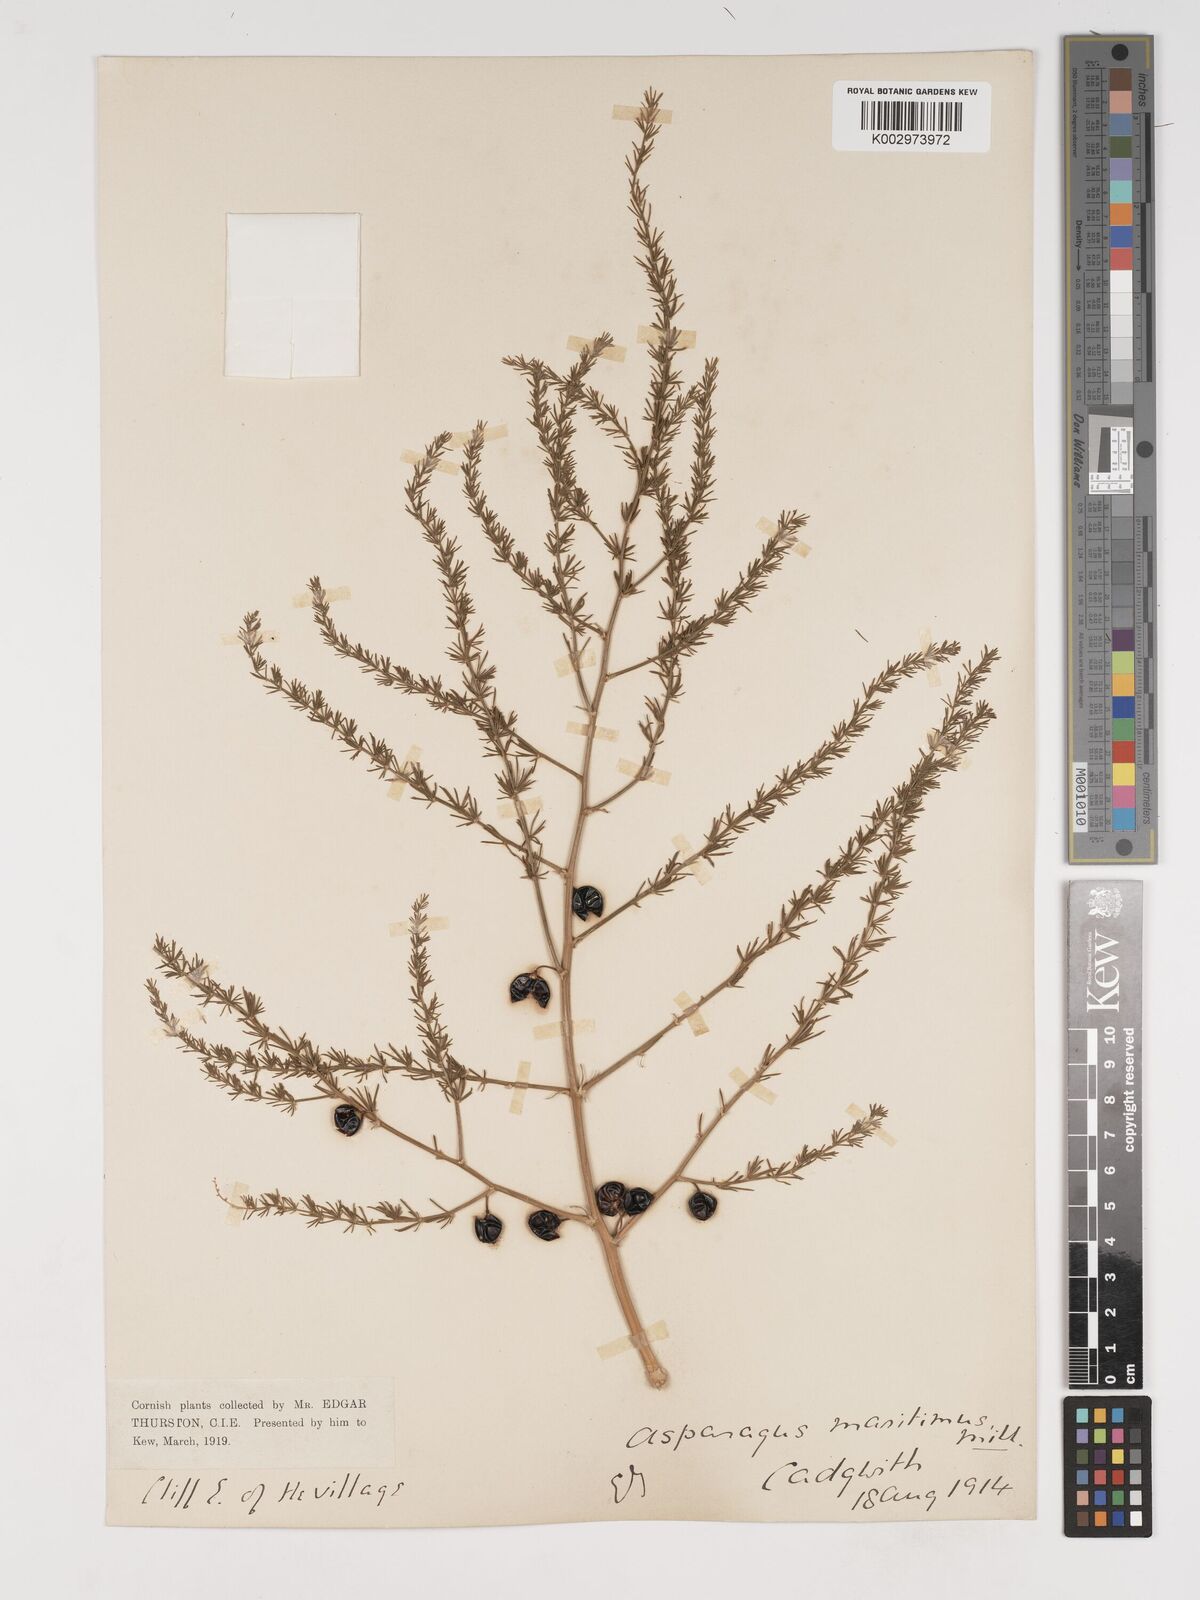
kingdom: Plantae
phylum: Tracheophyta
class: Liliopsida
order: Asparagales
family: Asparagaceae
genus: Asparagus
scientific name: Asparagus maritimus
